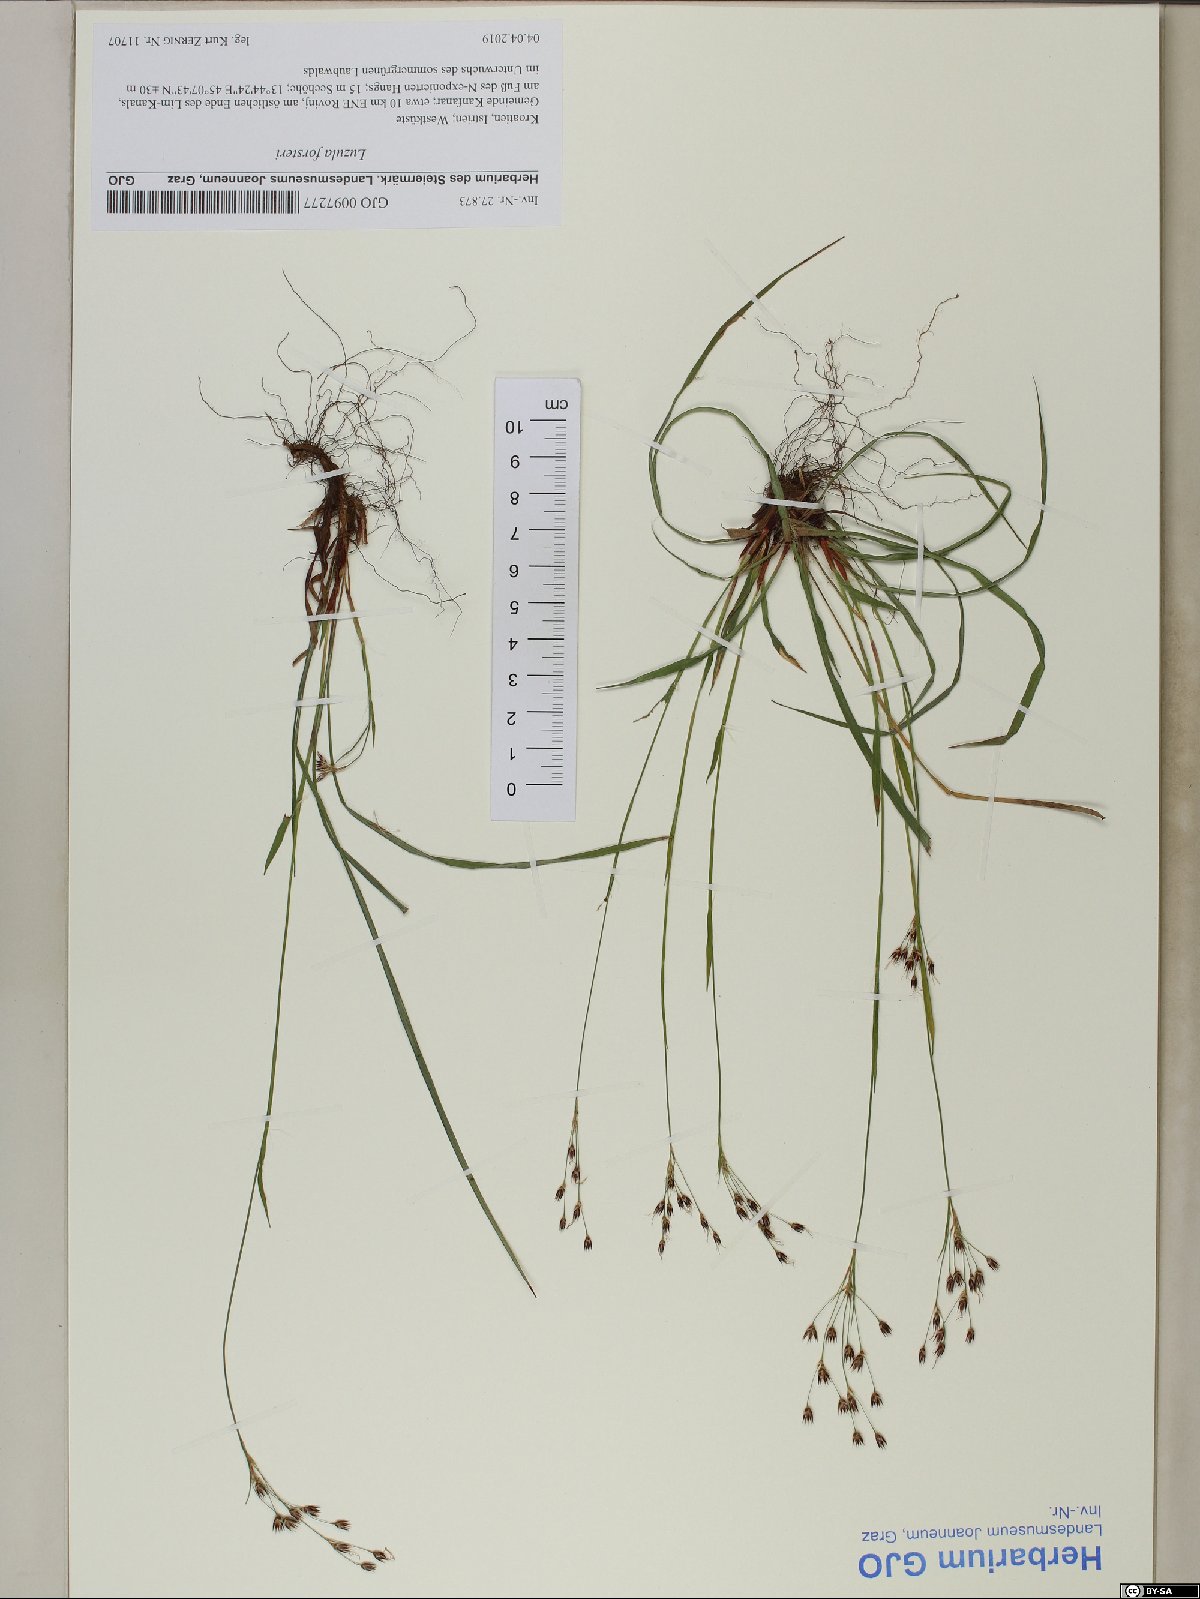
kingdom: Plantae
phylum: Tracheophyta
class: Liliopsida
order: Poales
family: Juncaceae
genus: Luzula
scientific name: Luzula forsteri
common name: Southern wood-rush
